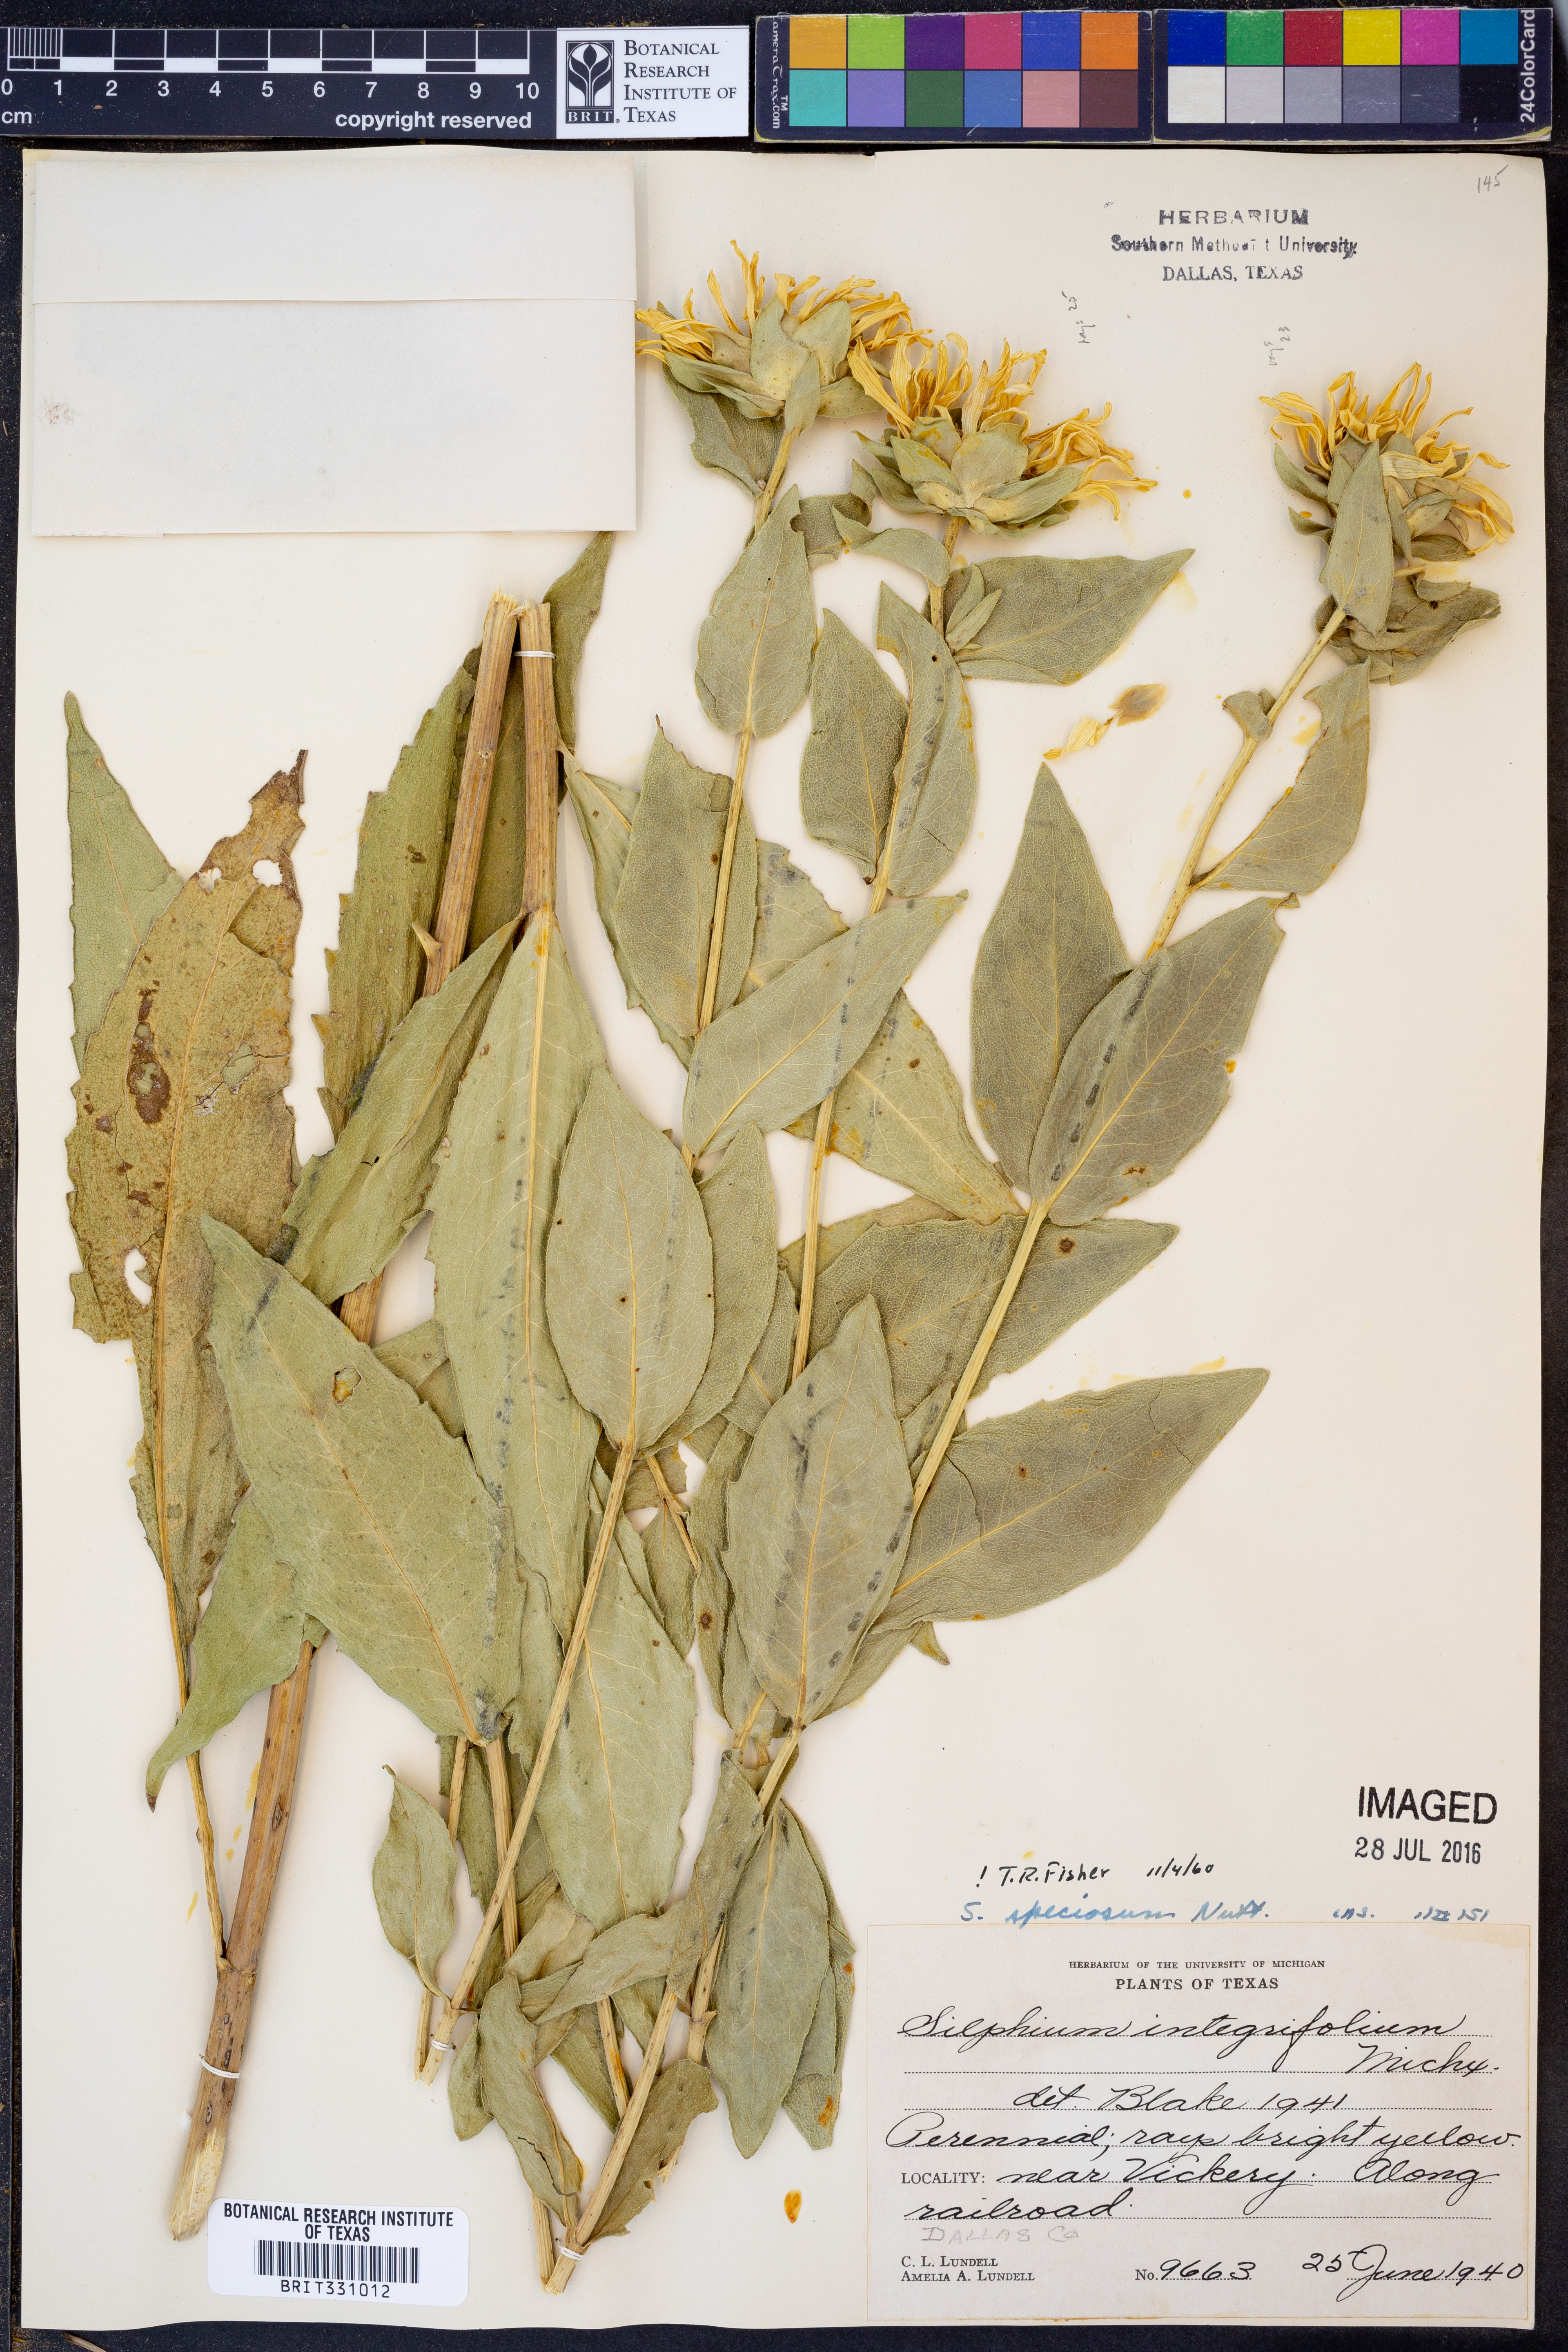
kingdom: Plantae
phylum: Tracheophyta
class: Magnoliopsida
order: Asterales
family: Asteraceae
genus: Silphium
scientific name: Silphium integrifolium
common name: Whole-leaf rosinweed
